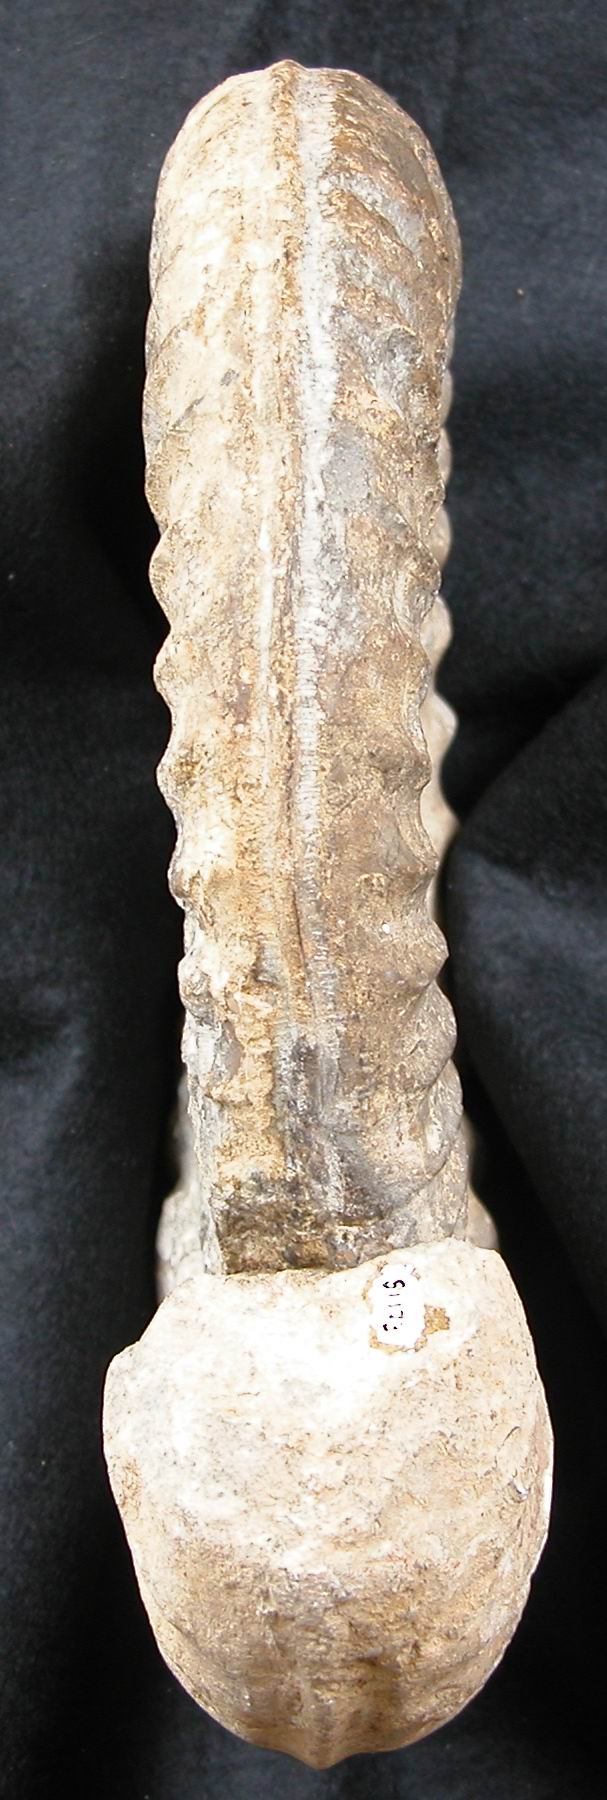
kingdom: Animalia
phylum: Mollusca
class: Cephalopoda
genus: Ammonites
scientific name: Ammonites bucklandi
